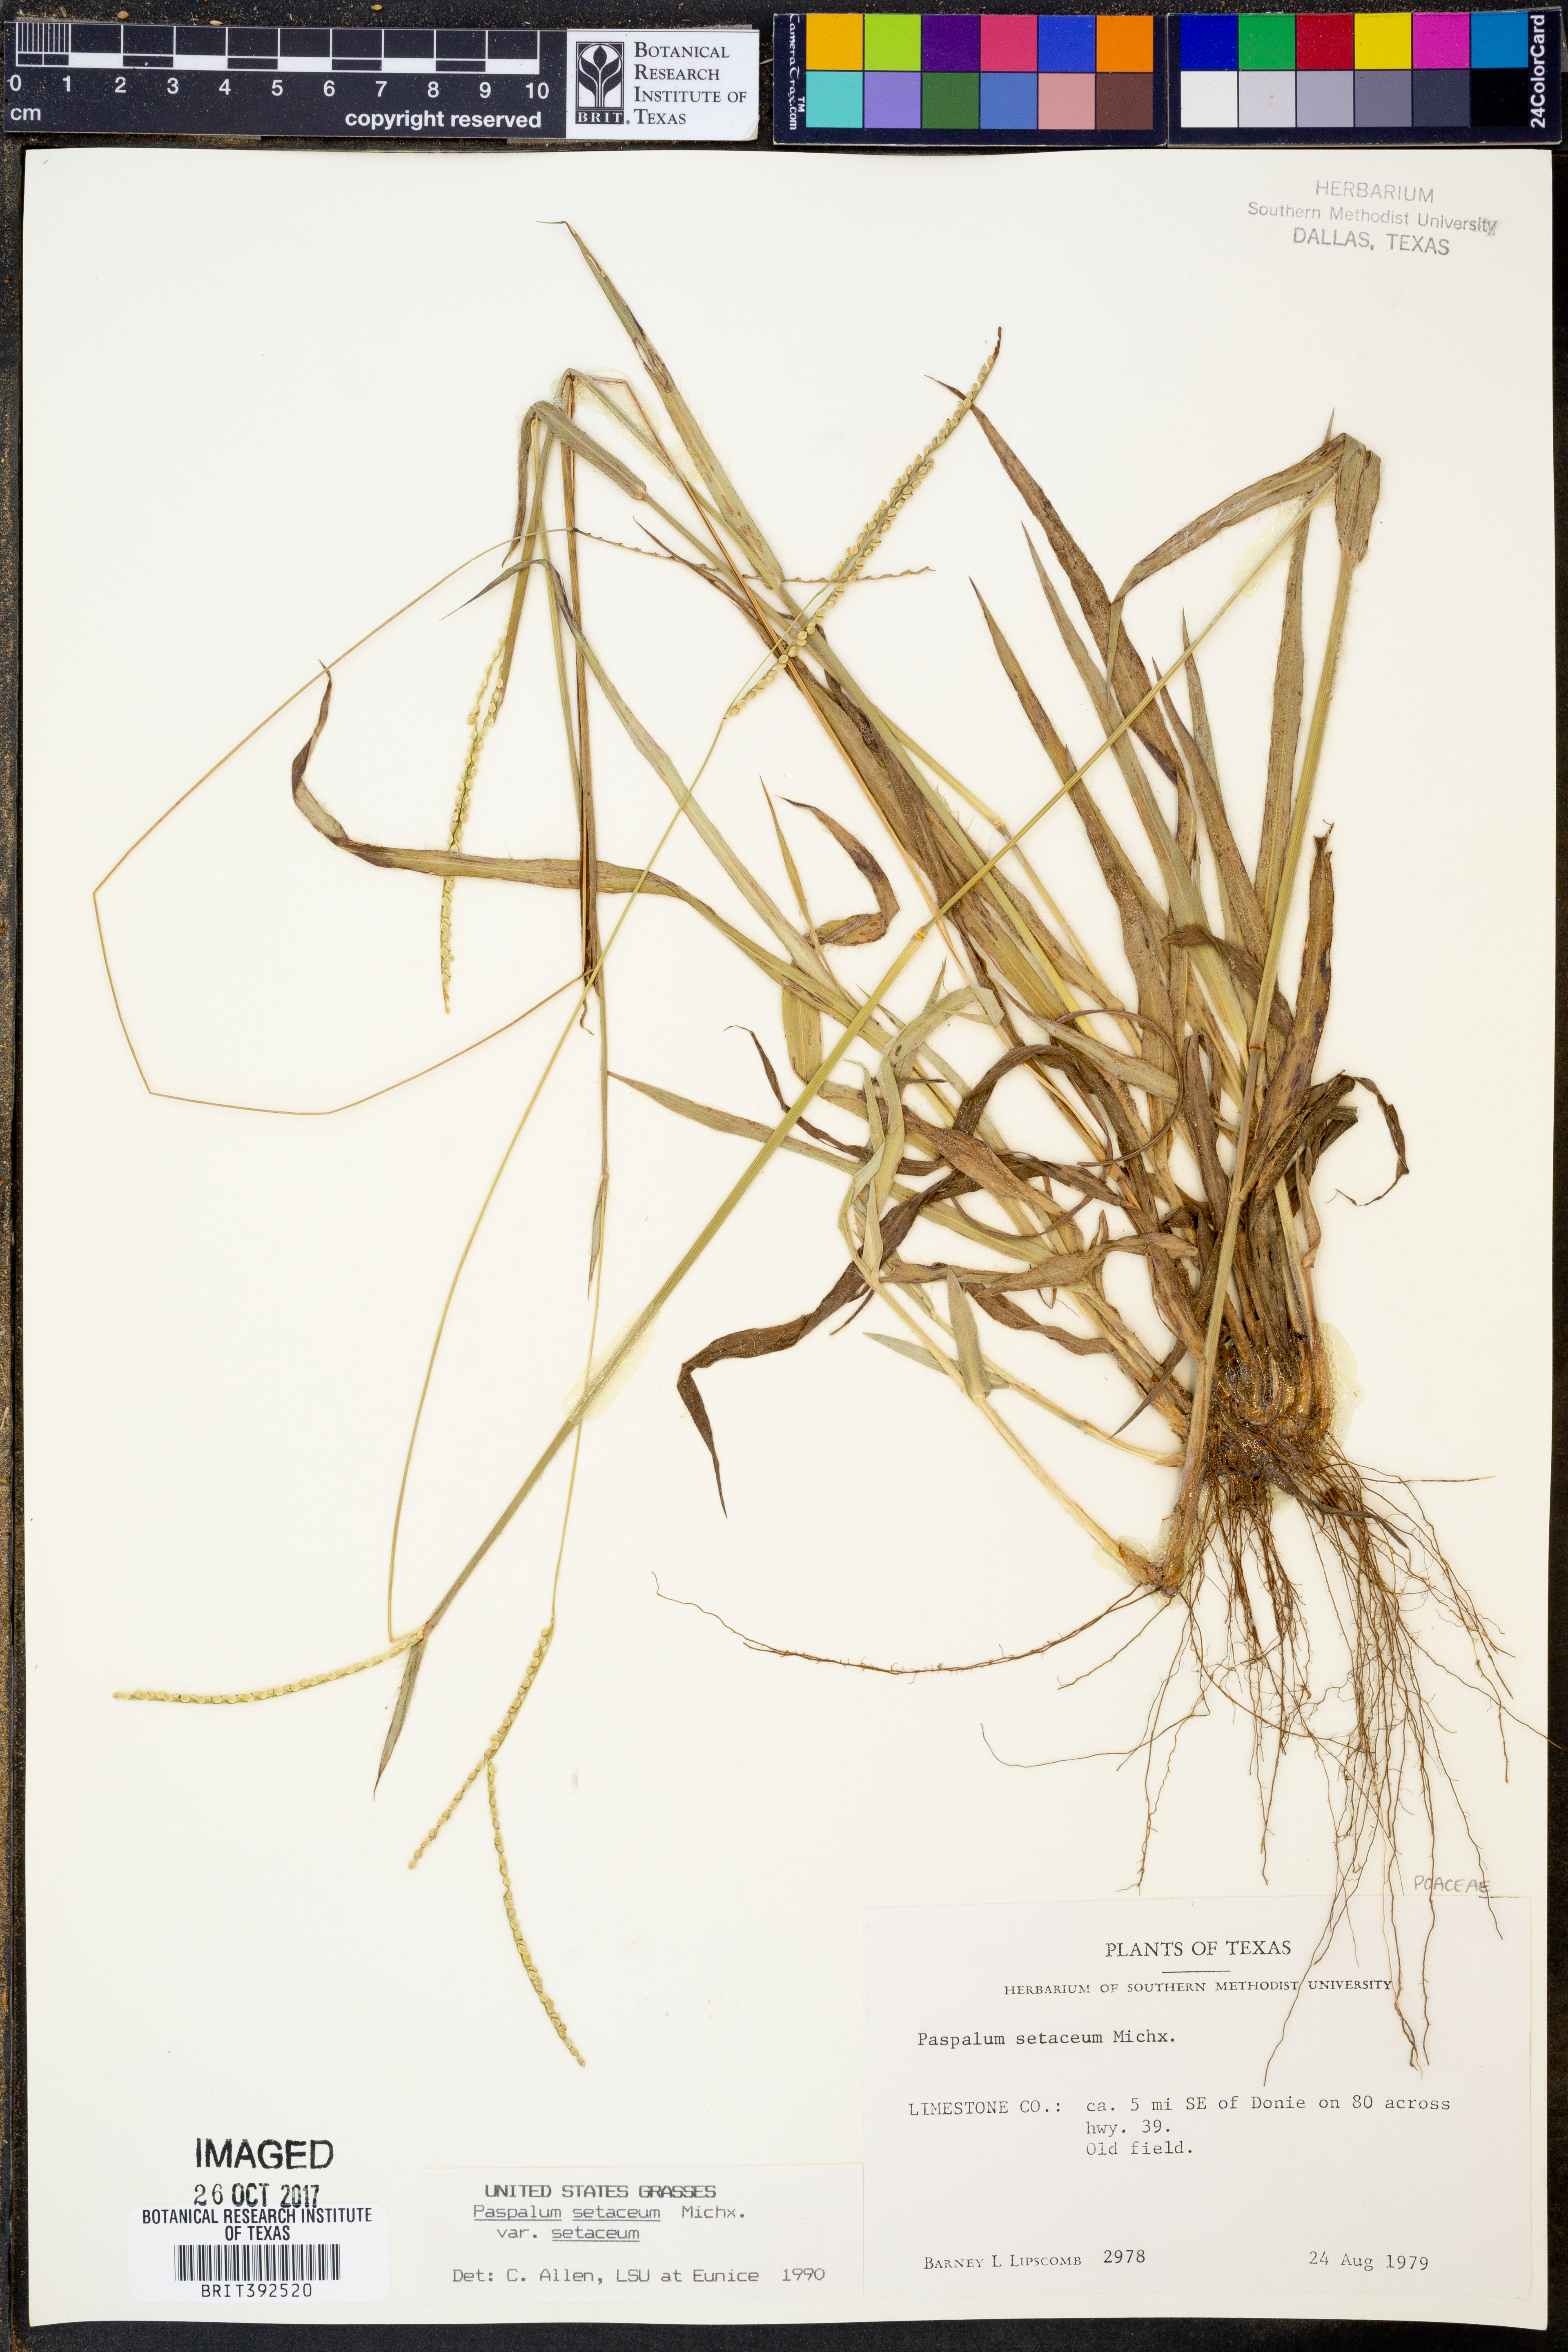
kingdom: Plantae
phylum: Tracheophyta
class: Liliopsida
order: Poales
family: Poaceae
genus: Paspalum
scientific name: Paspalum setaceum
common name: Slender paspalum
